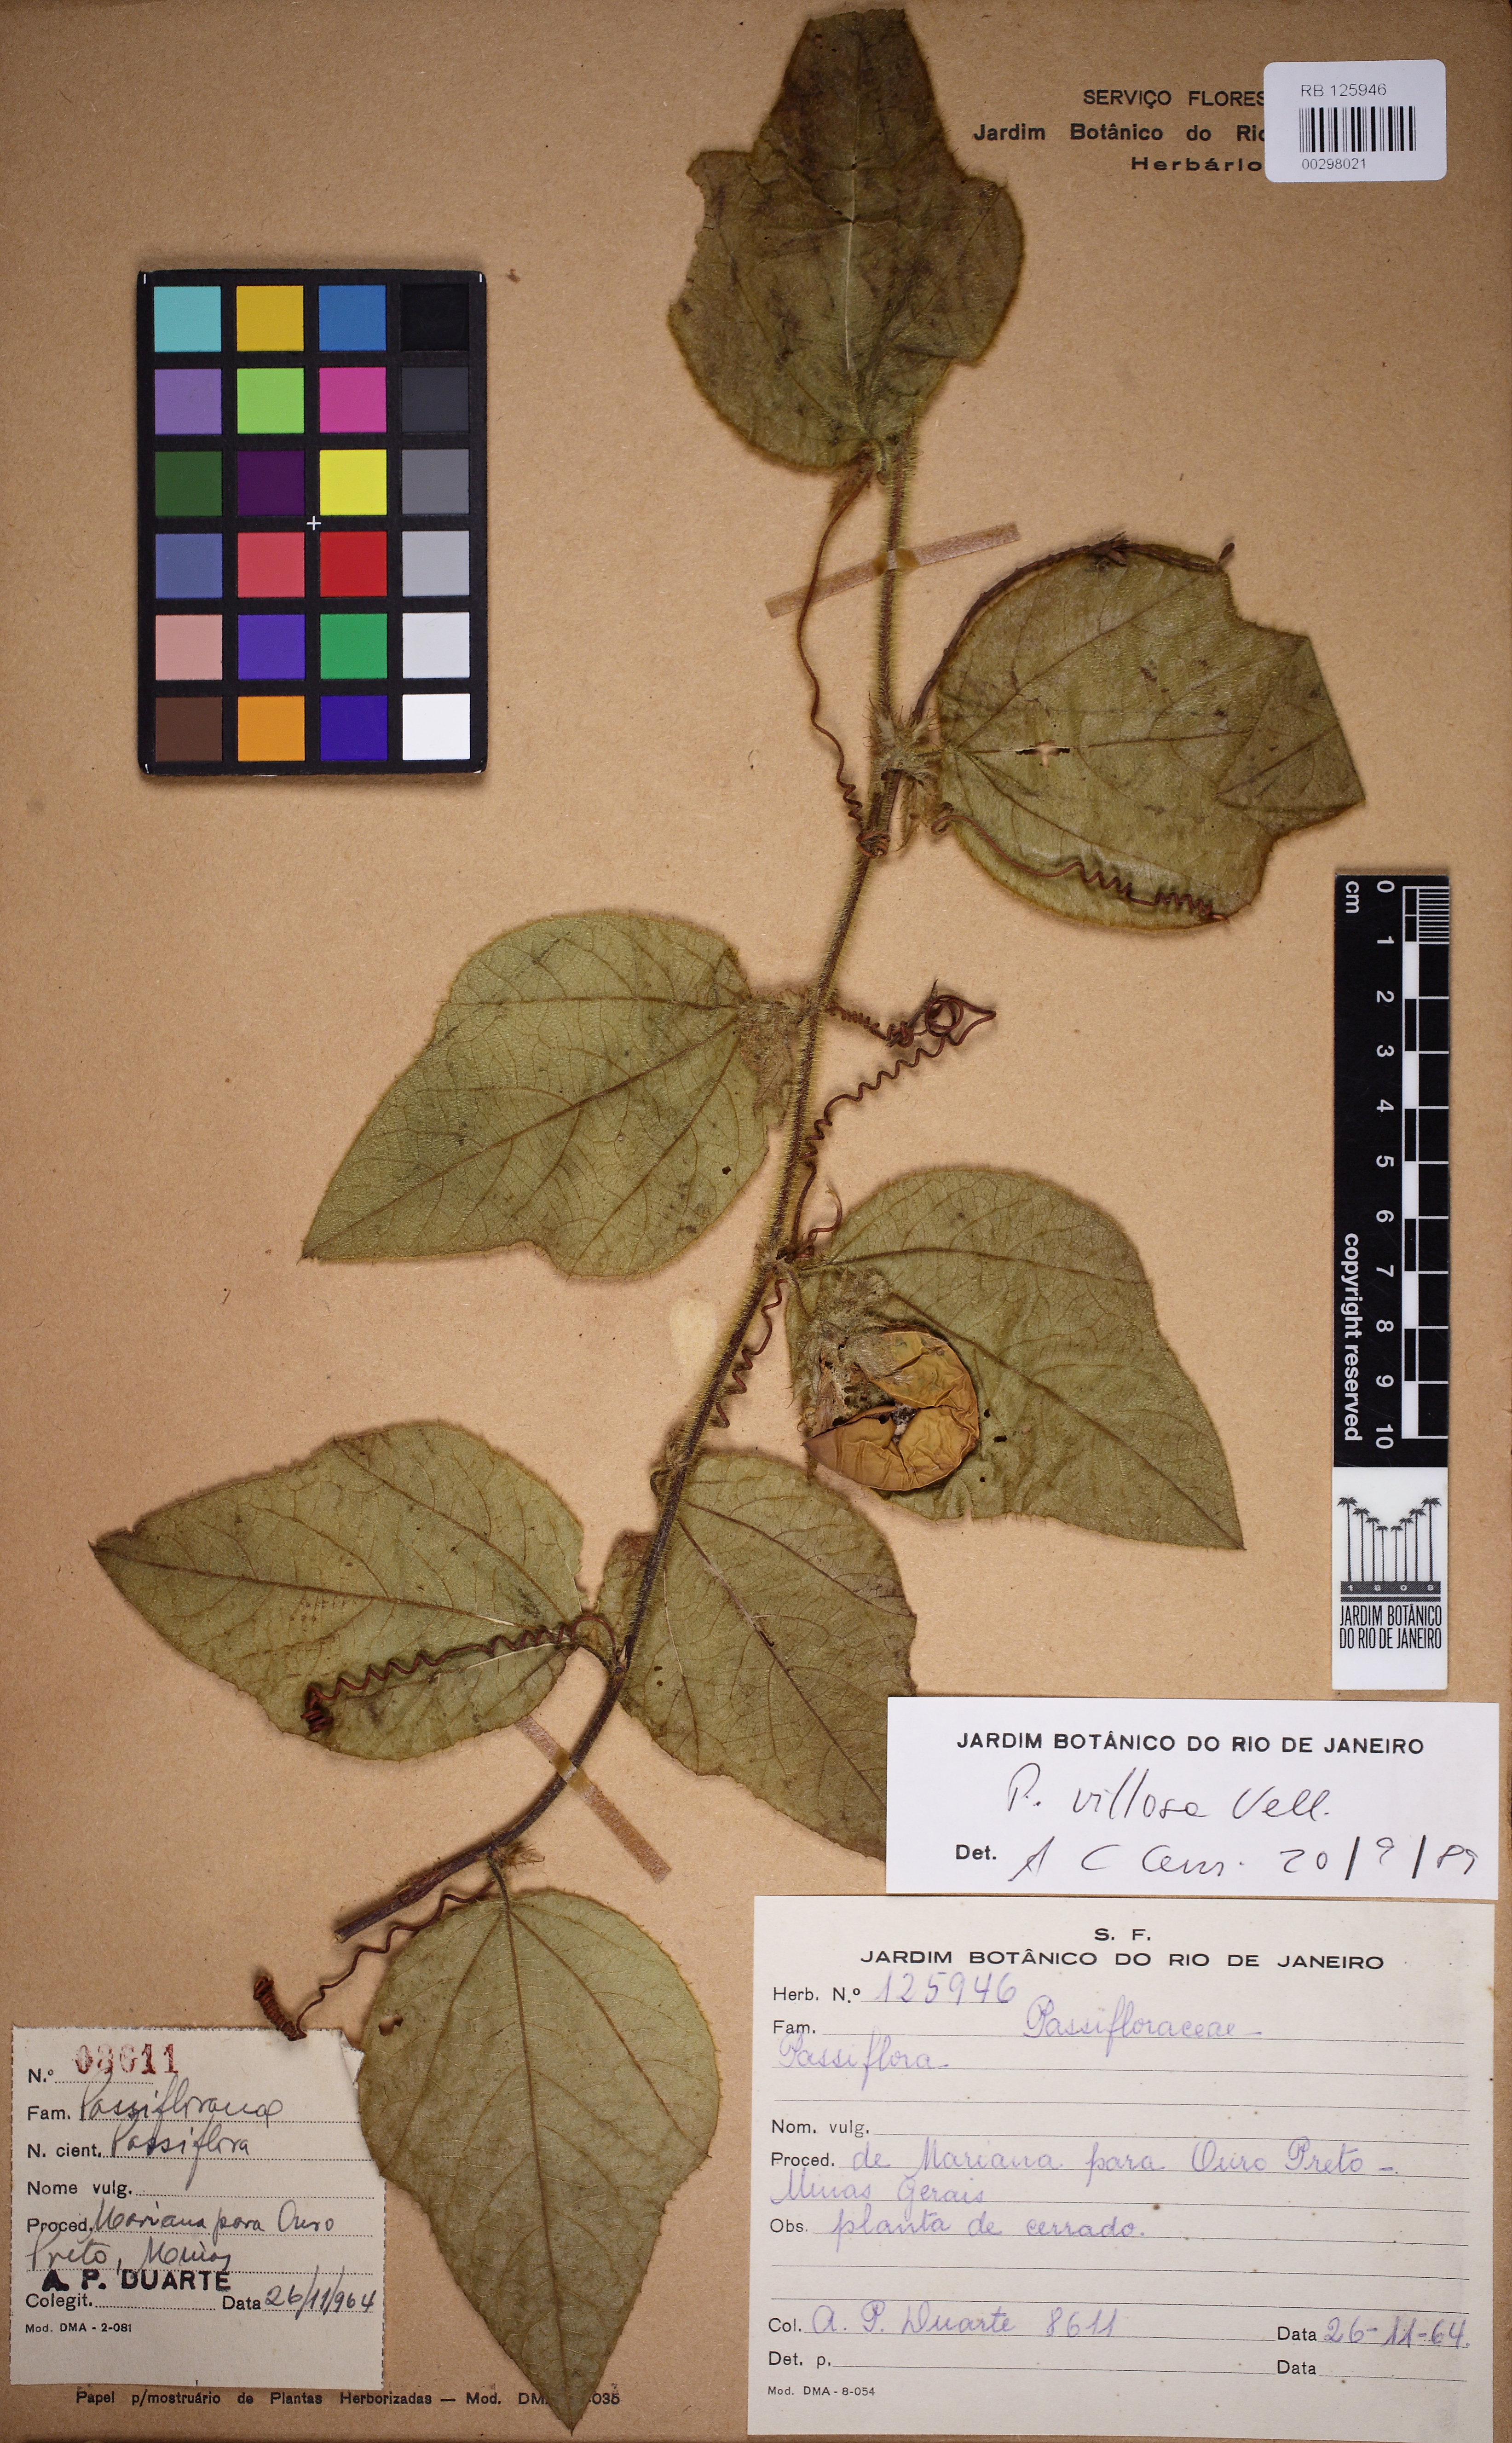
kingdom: Plantae
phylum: Tracheophyta
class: Magnoliopsida
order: Malpighiales
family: Passifloraceae
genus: Passiflora
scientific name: Passiflora villosa
